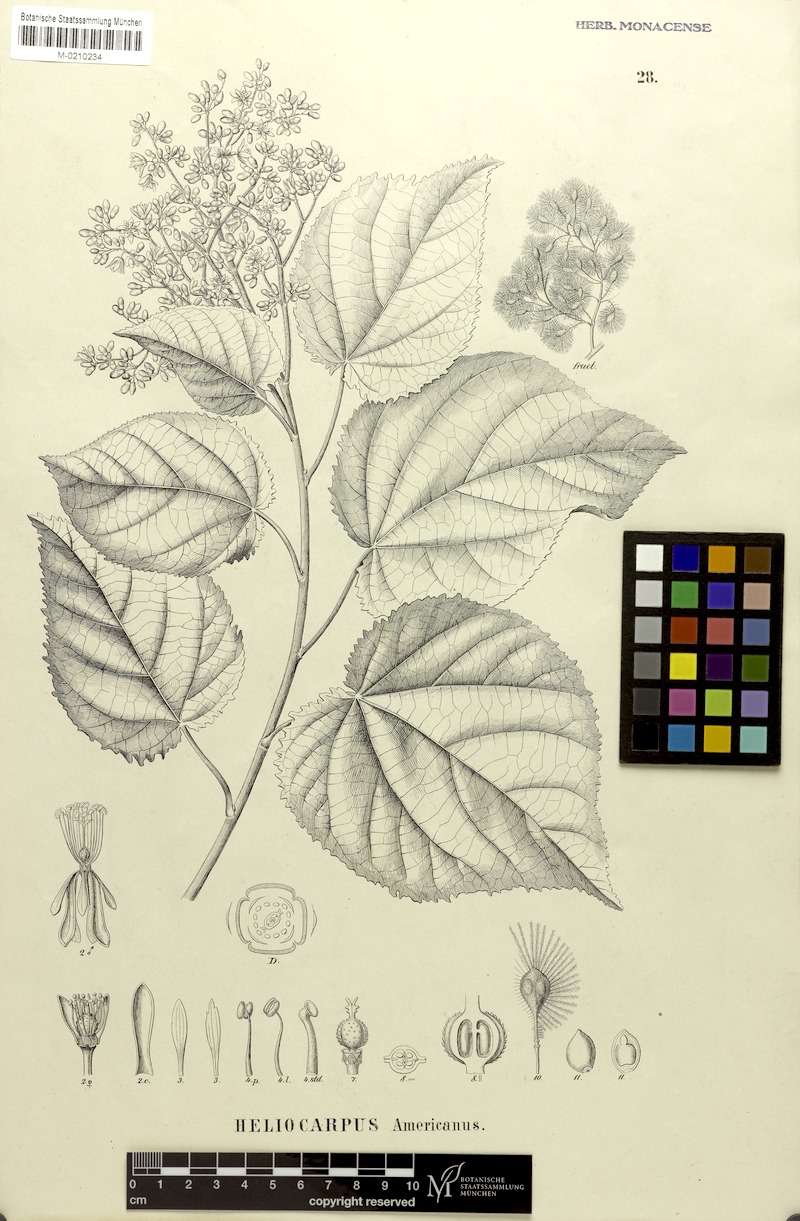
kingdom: Plantae
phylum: Tracheophyta
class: Magnoliopsida
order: Malvales
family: Malvaceae
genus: Heliocarpus
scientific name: Heliocarpus americanus
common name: White moho
